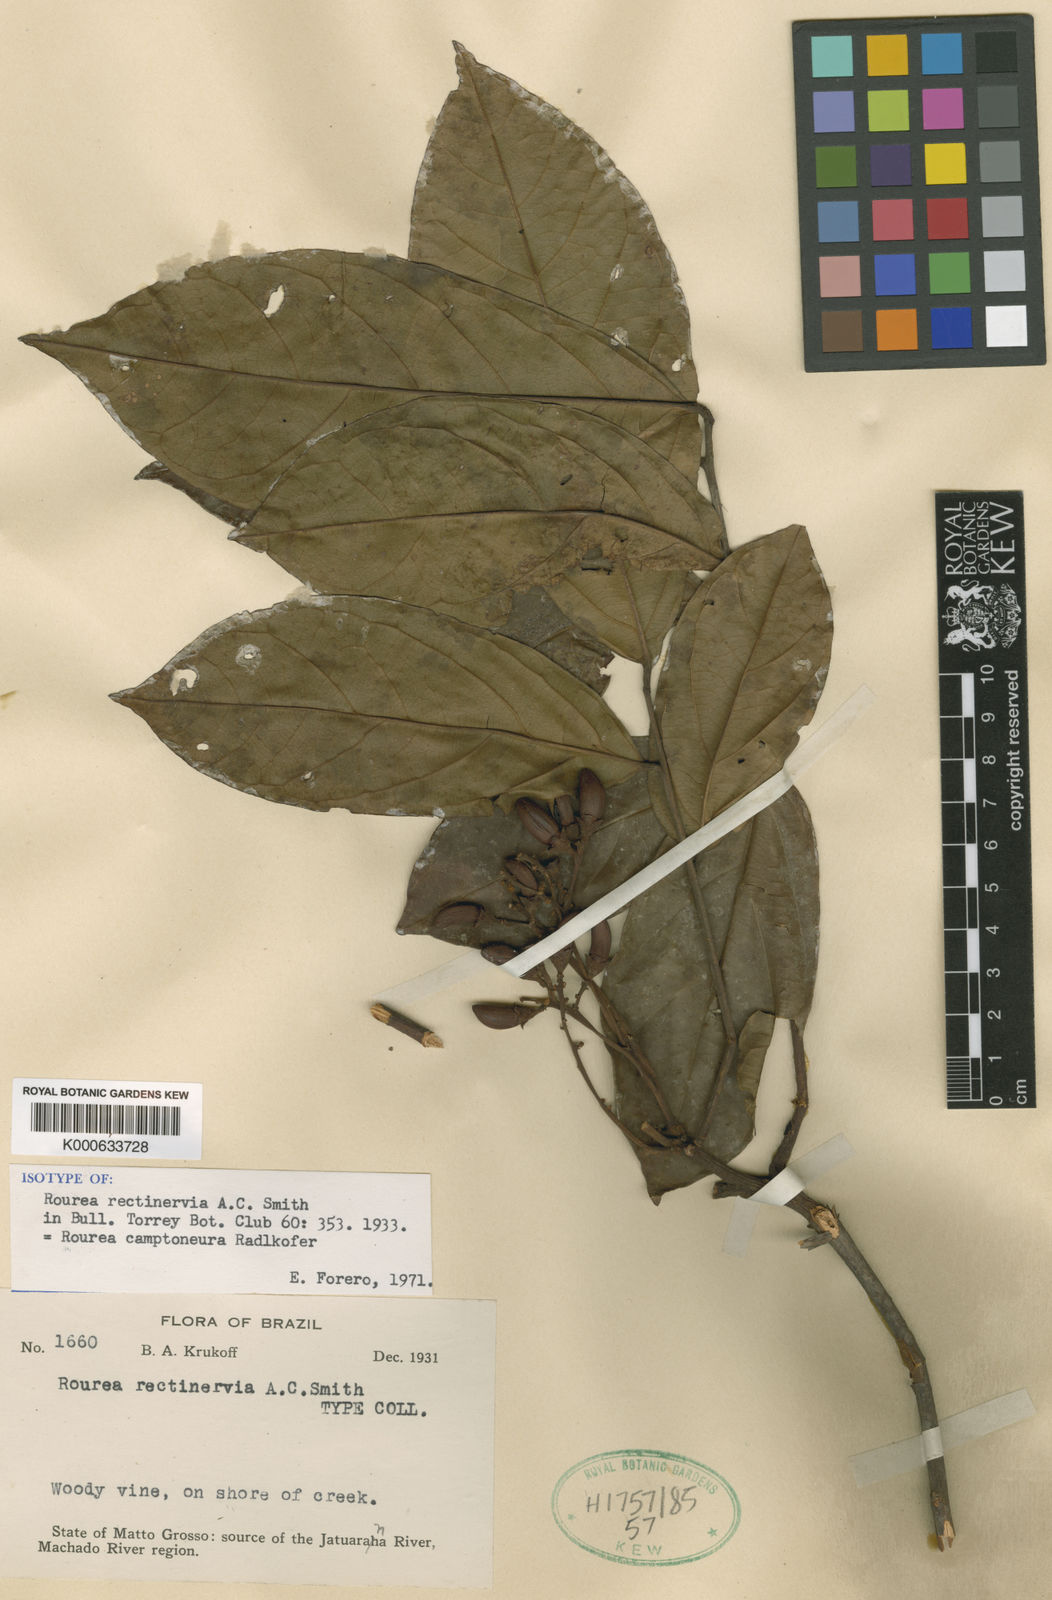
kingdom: Plantae
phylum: Tracheophyta
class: Magnoliopsida
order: Oxalidales
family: Connaraceae
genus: Rourea
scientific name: Rourea camptoneura
